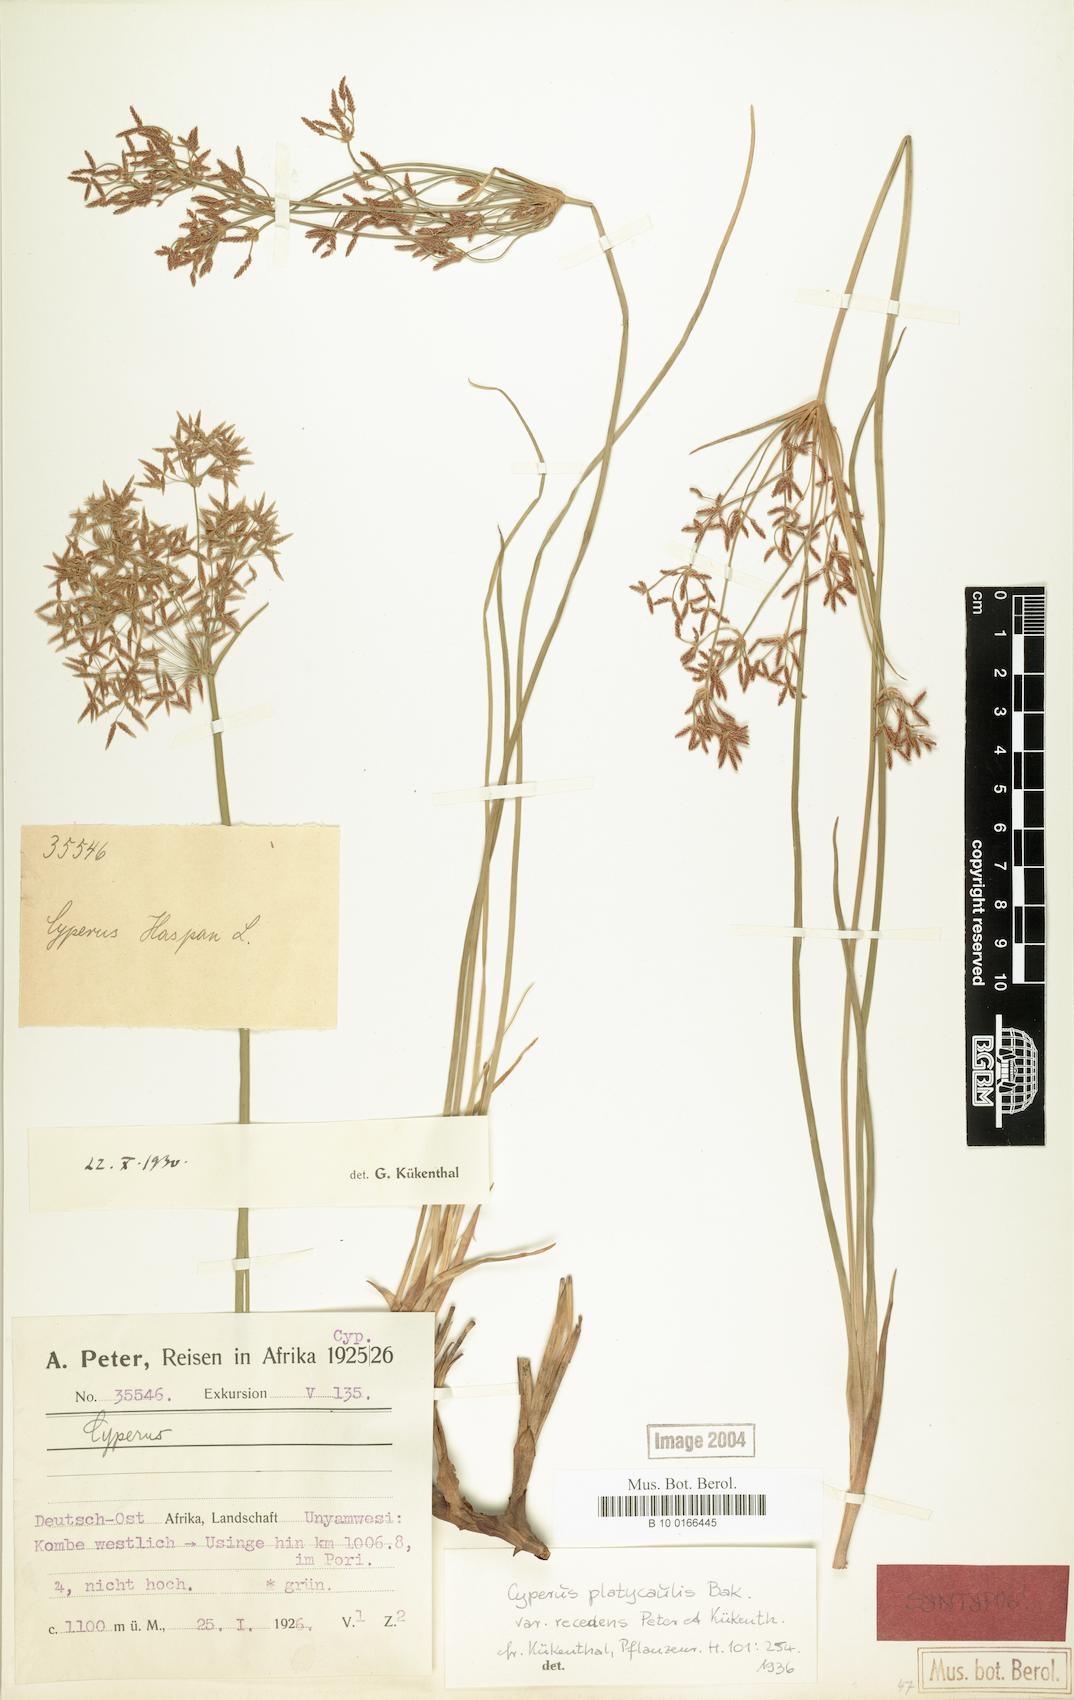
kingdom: Plantae
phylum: Tracheophyta
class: Liliopsida
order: Poales
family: Cyperaceae
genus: Cyperus
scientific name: Cyperus denudatus
